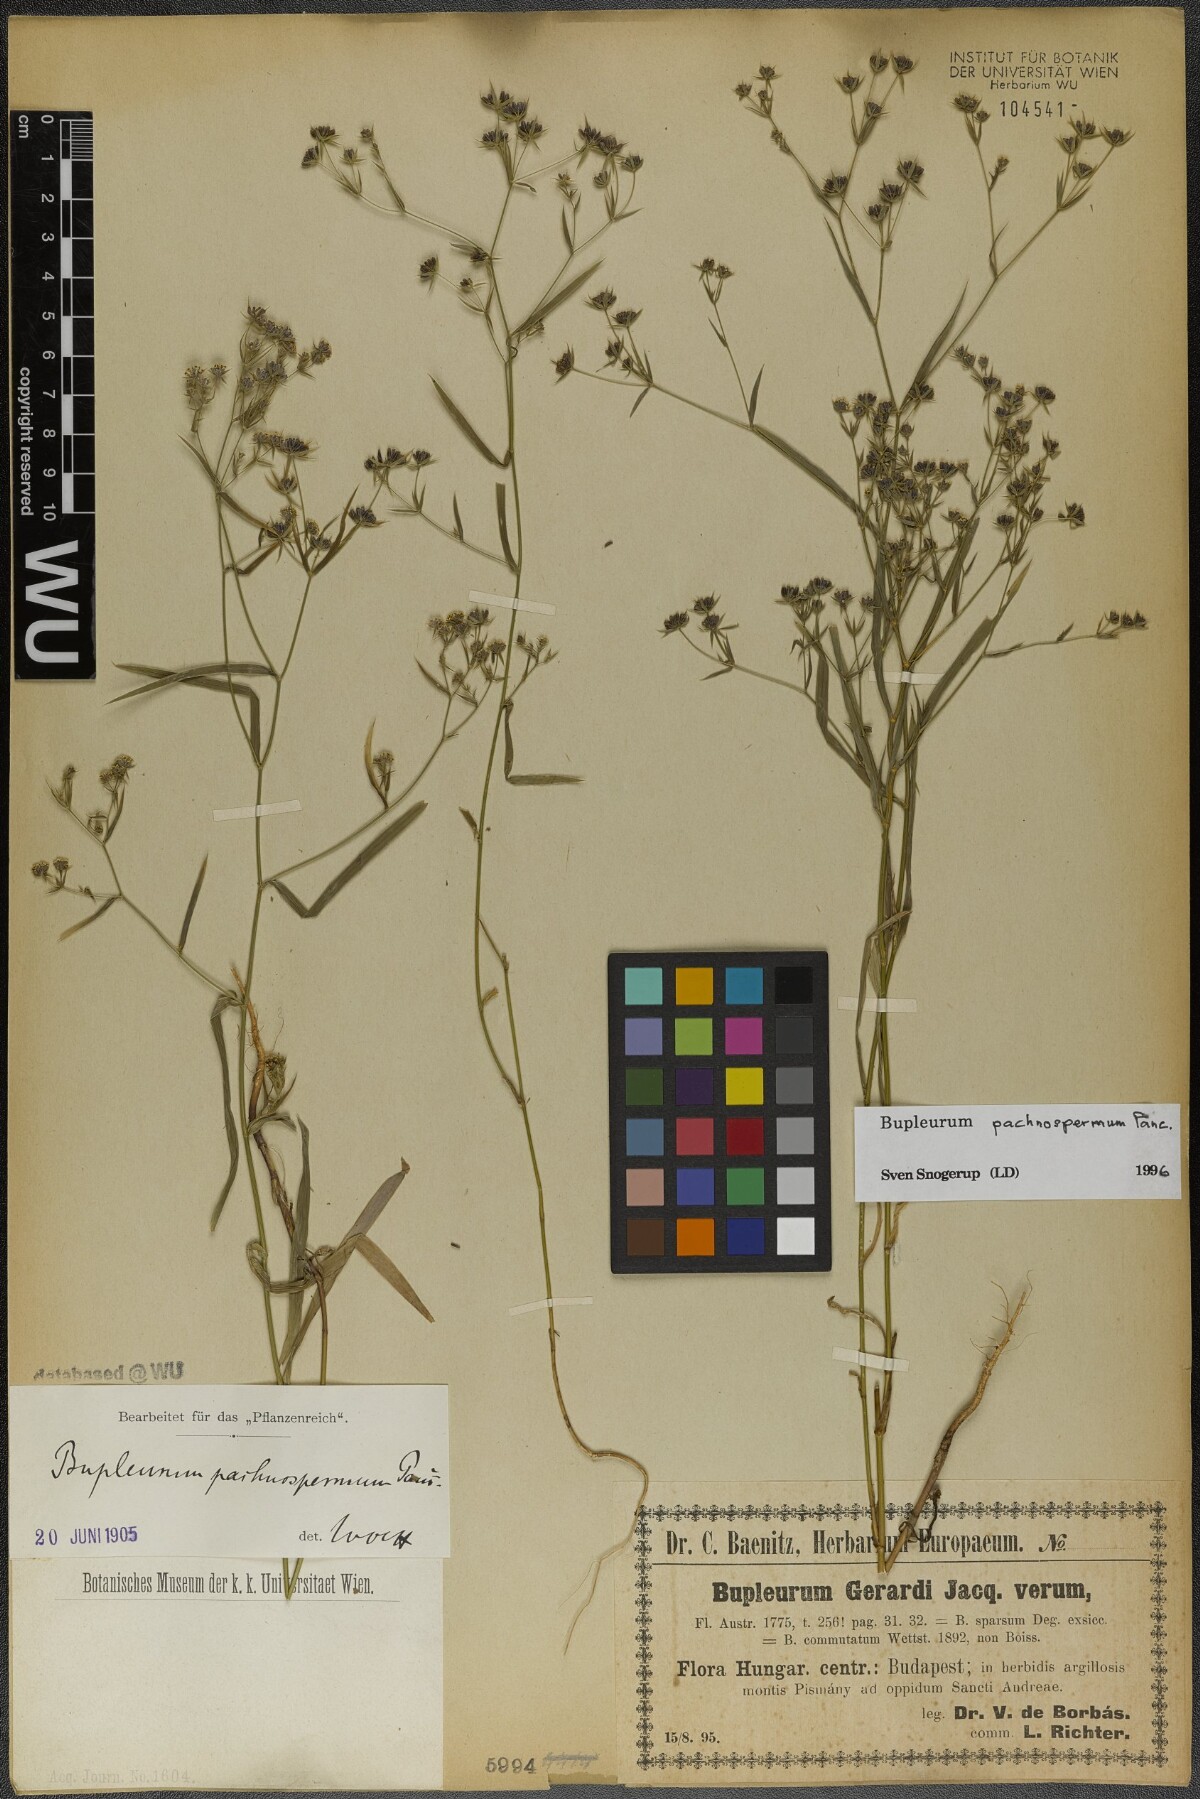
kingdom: Plantae
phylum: Tracheophyta
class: Magnoliopsida
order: Apiales
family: Apiaceae
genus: Bupleurum
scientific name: Bupleurum pachnospermum
